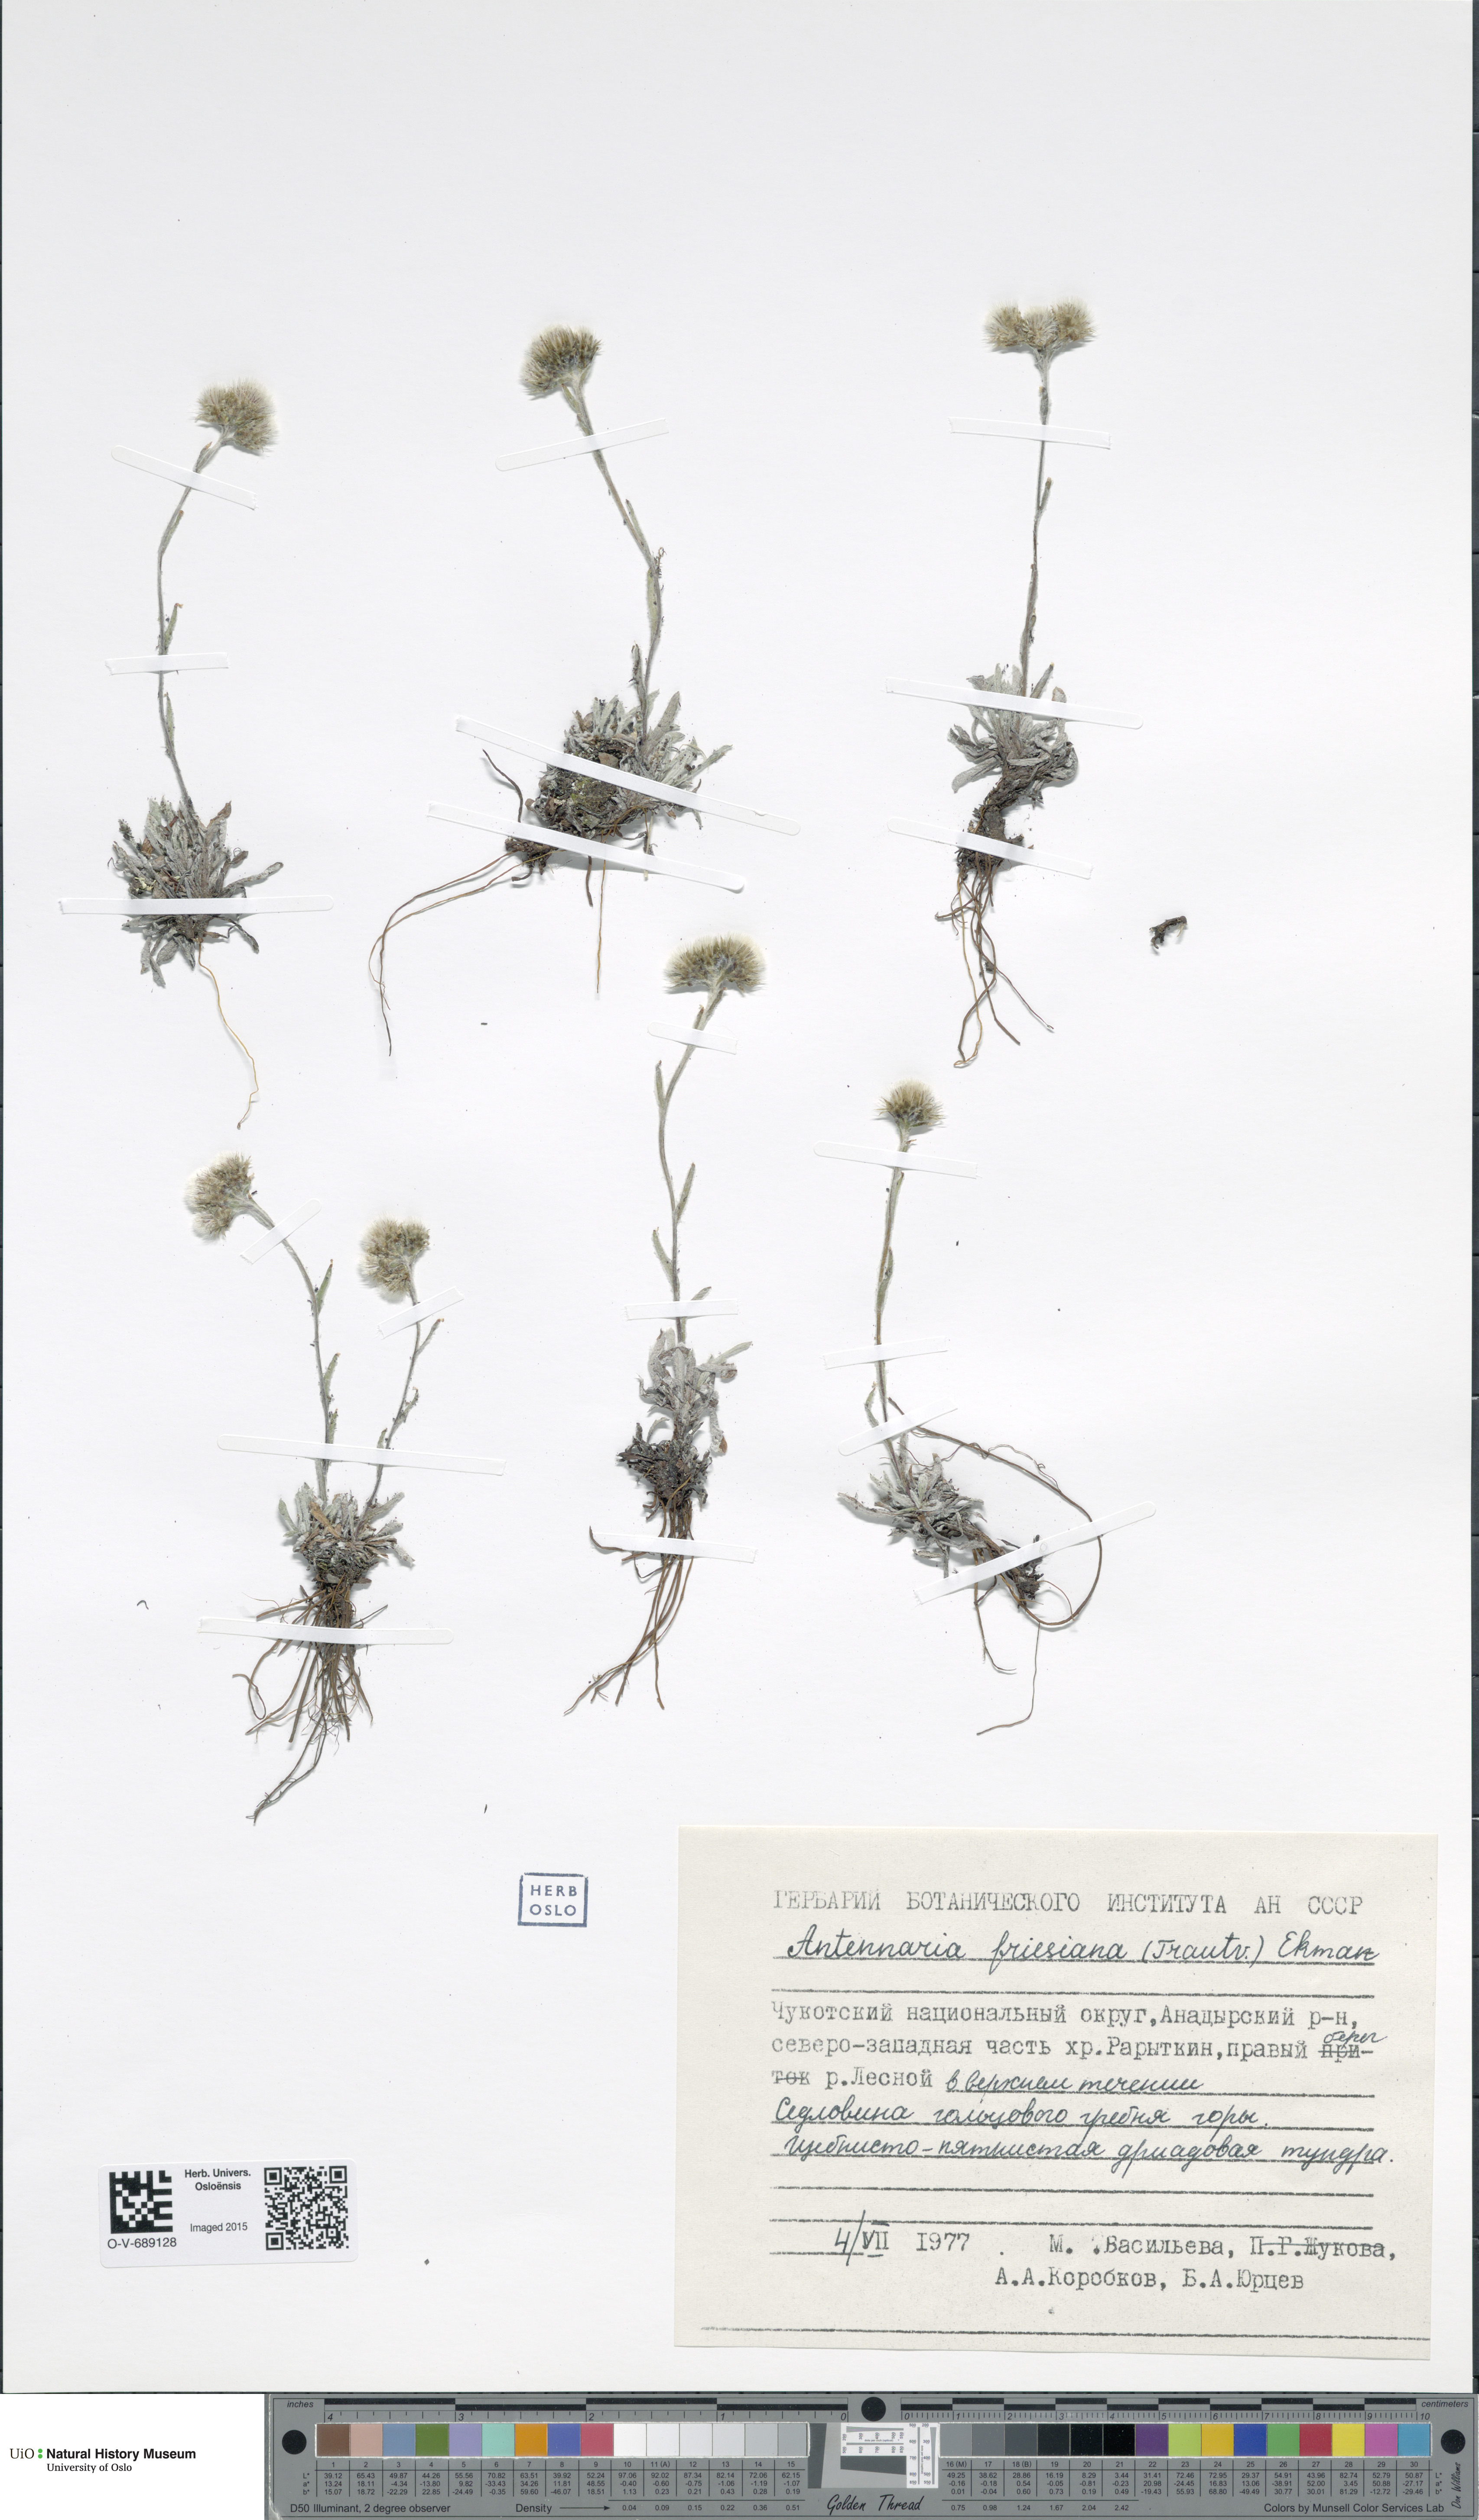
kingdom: Plantae
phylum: Tracheophyta
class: Magnoliopsida
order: Asterales
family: Asteraceae
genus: Antennaria
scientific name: Antennaria friesiana
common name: Fries' pussytoes
